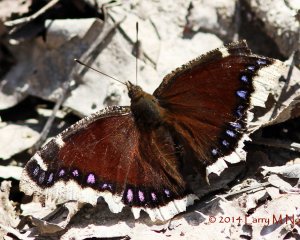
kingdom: Animalia
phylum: Arthropoda
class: Insecta
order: Lepidoptera
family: Nymphalidae
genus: Nymphalis
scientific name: Nymphalis antiopa
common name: Mourning Cloak
